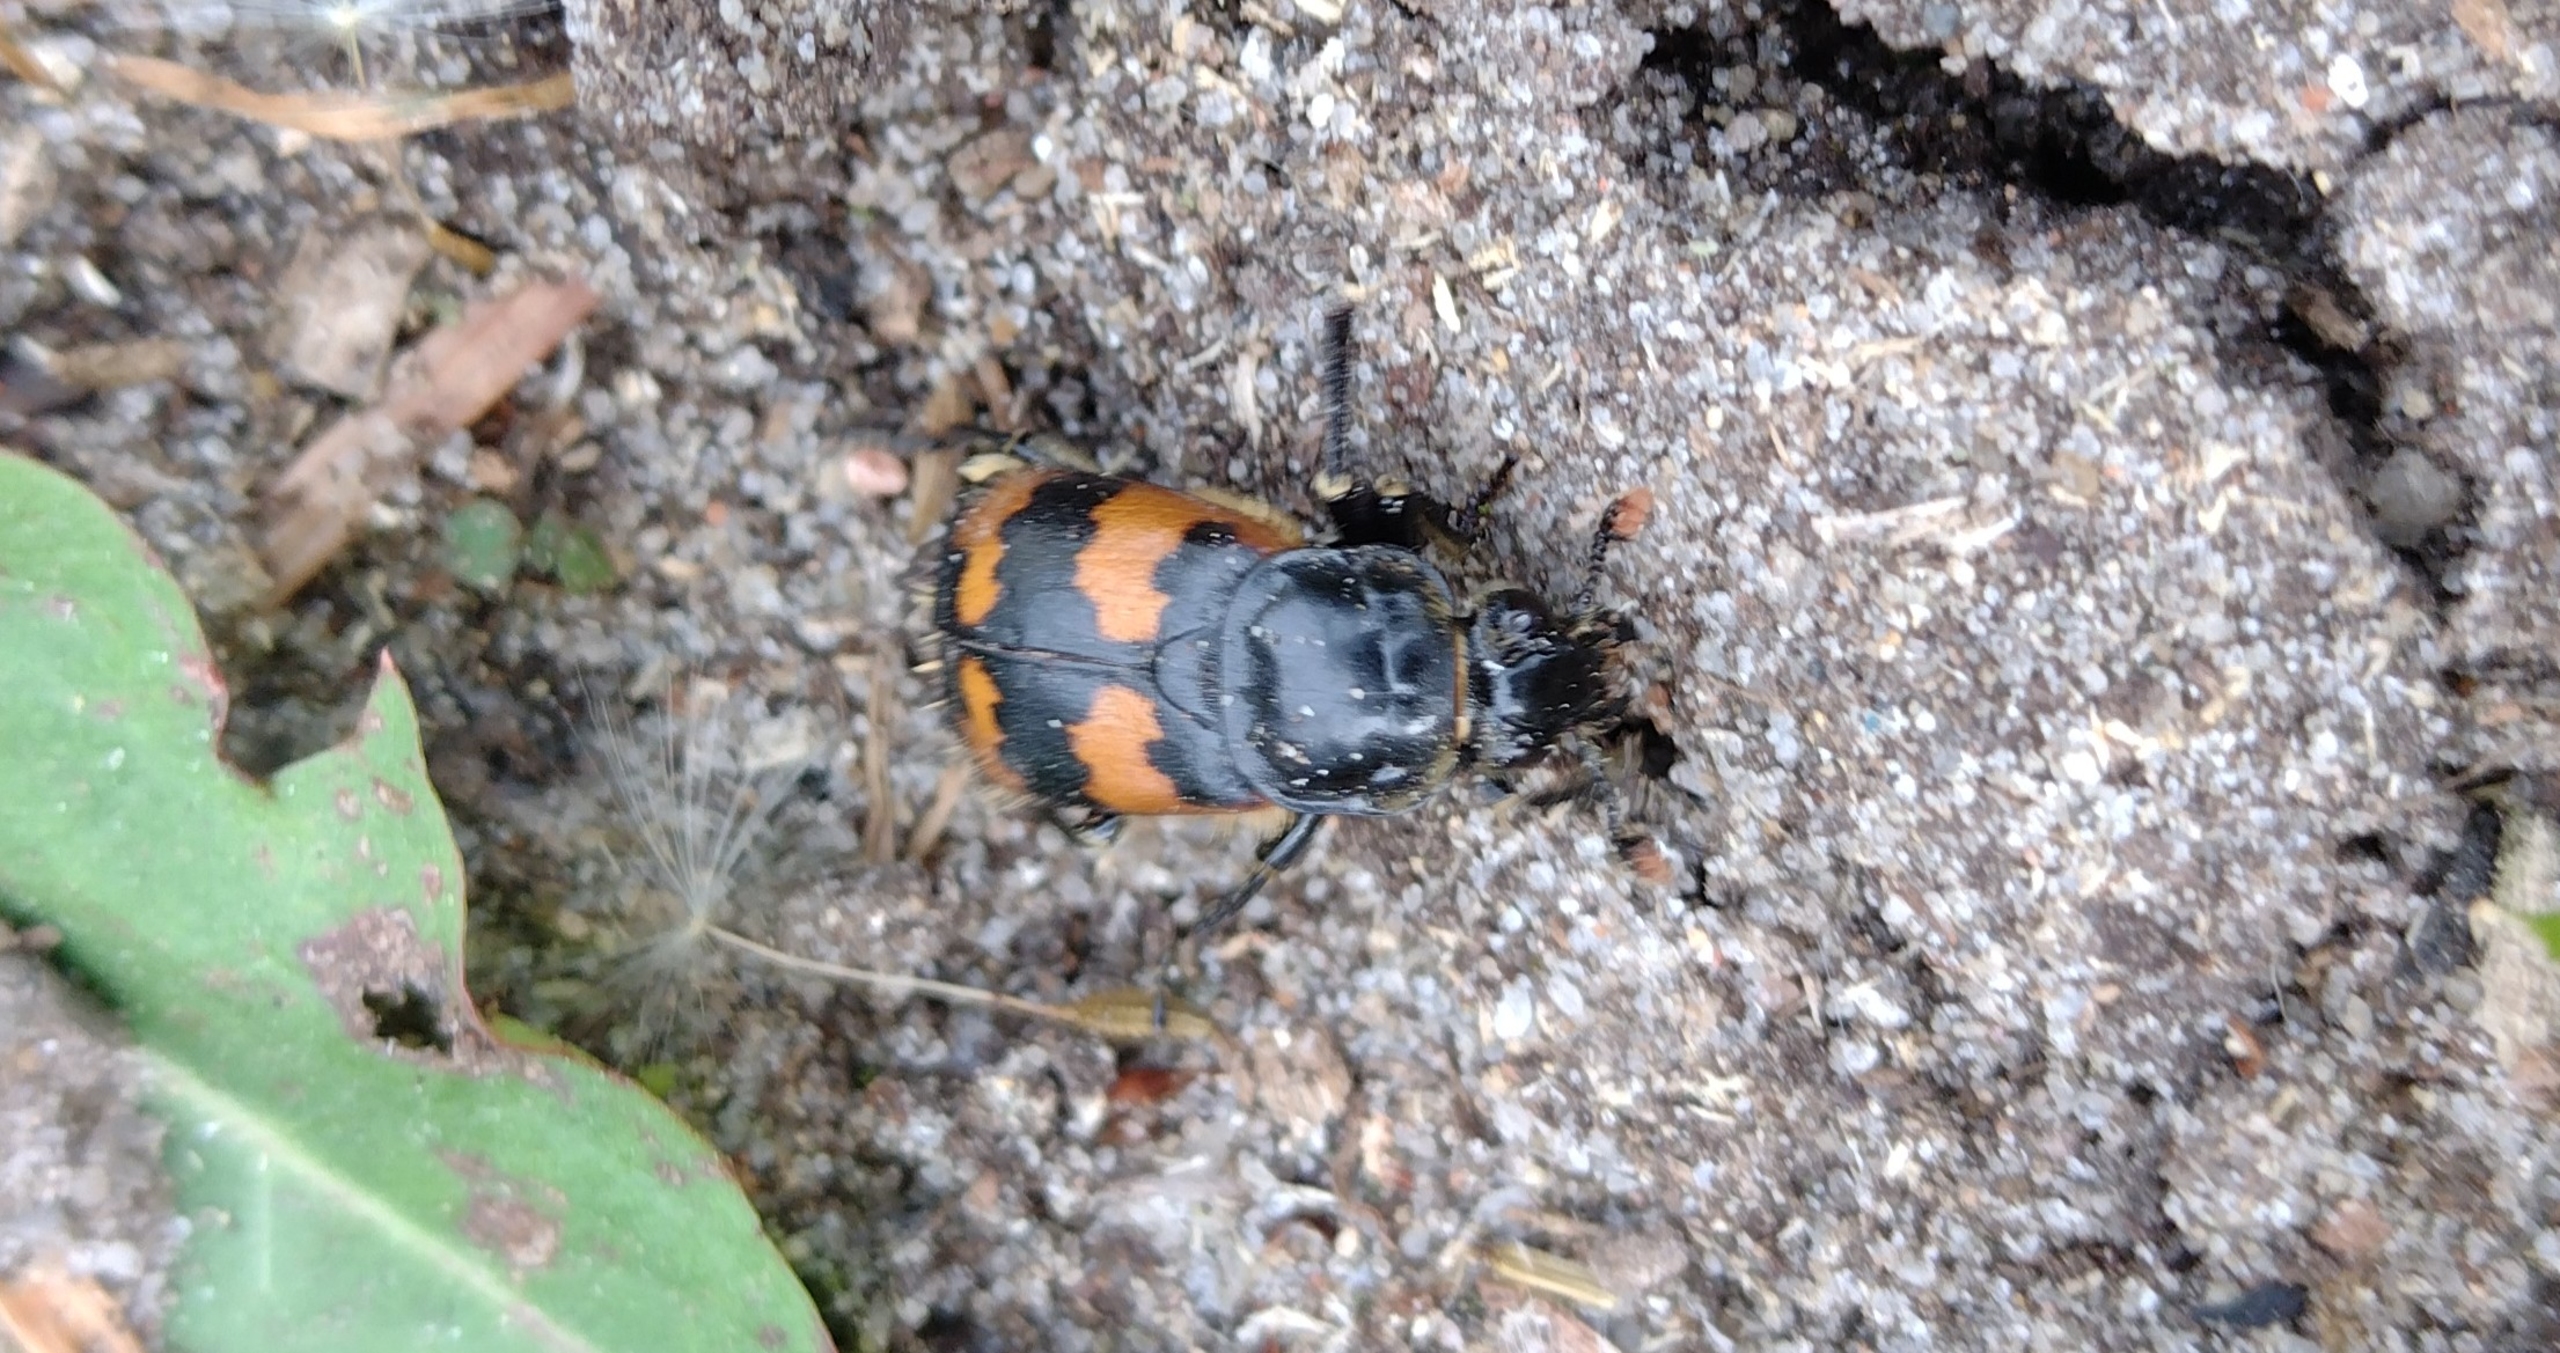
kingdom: Animalia
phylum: Arthropoda
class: Insecta
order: Coleoptera
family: Staphylinidae
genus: Nicrophorus
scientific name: Nicrophorus vespillo
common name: Krumbenet ådselgraver
